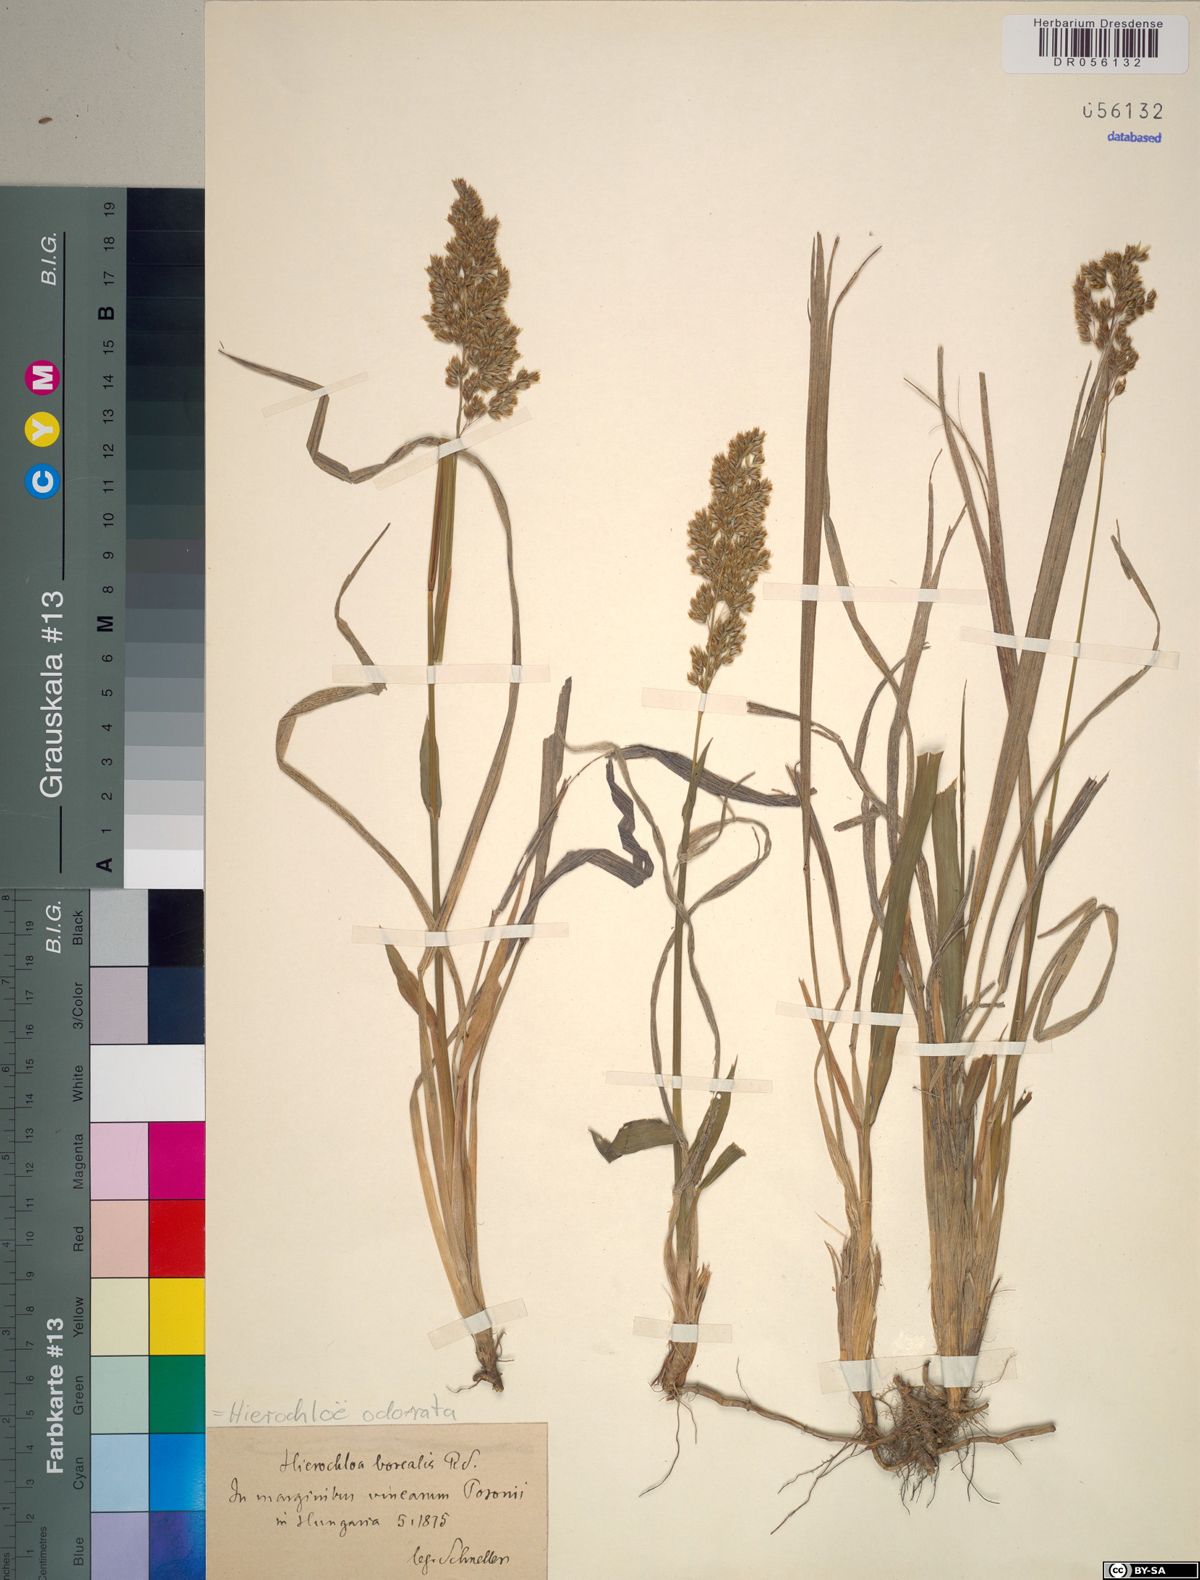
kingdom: Plantae
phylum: Tracheophyta
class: Liliopsida
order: Poales
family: Poaceae
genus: Anthoxanthum
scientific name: Anthoxanthum nitens
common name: Holy grass
